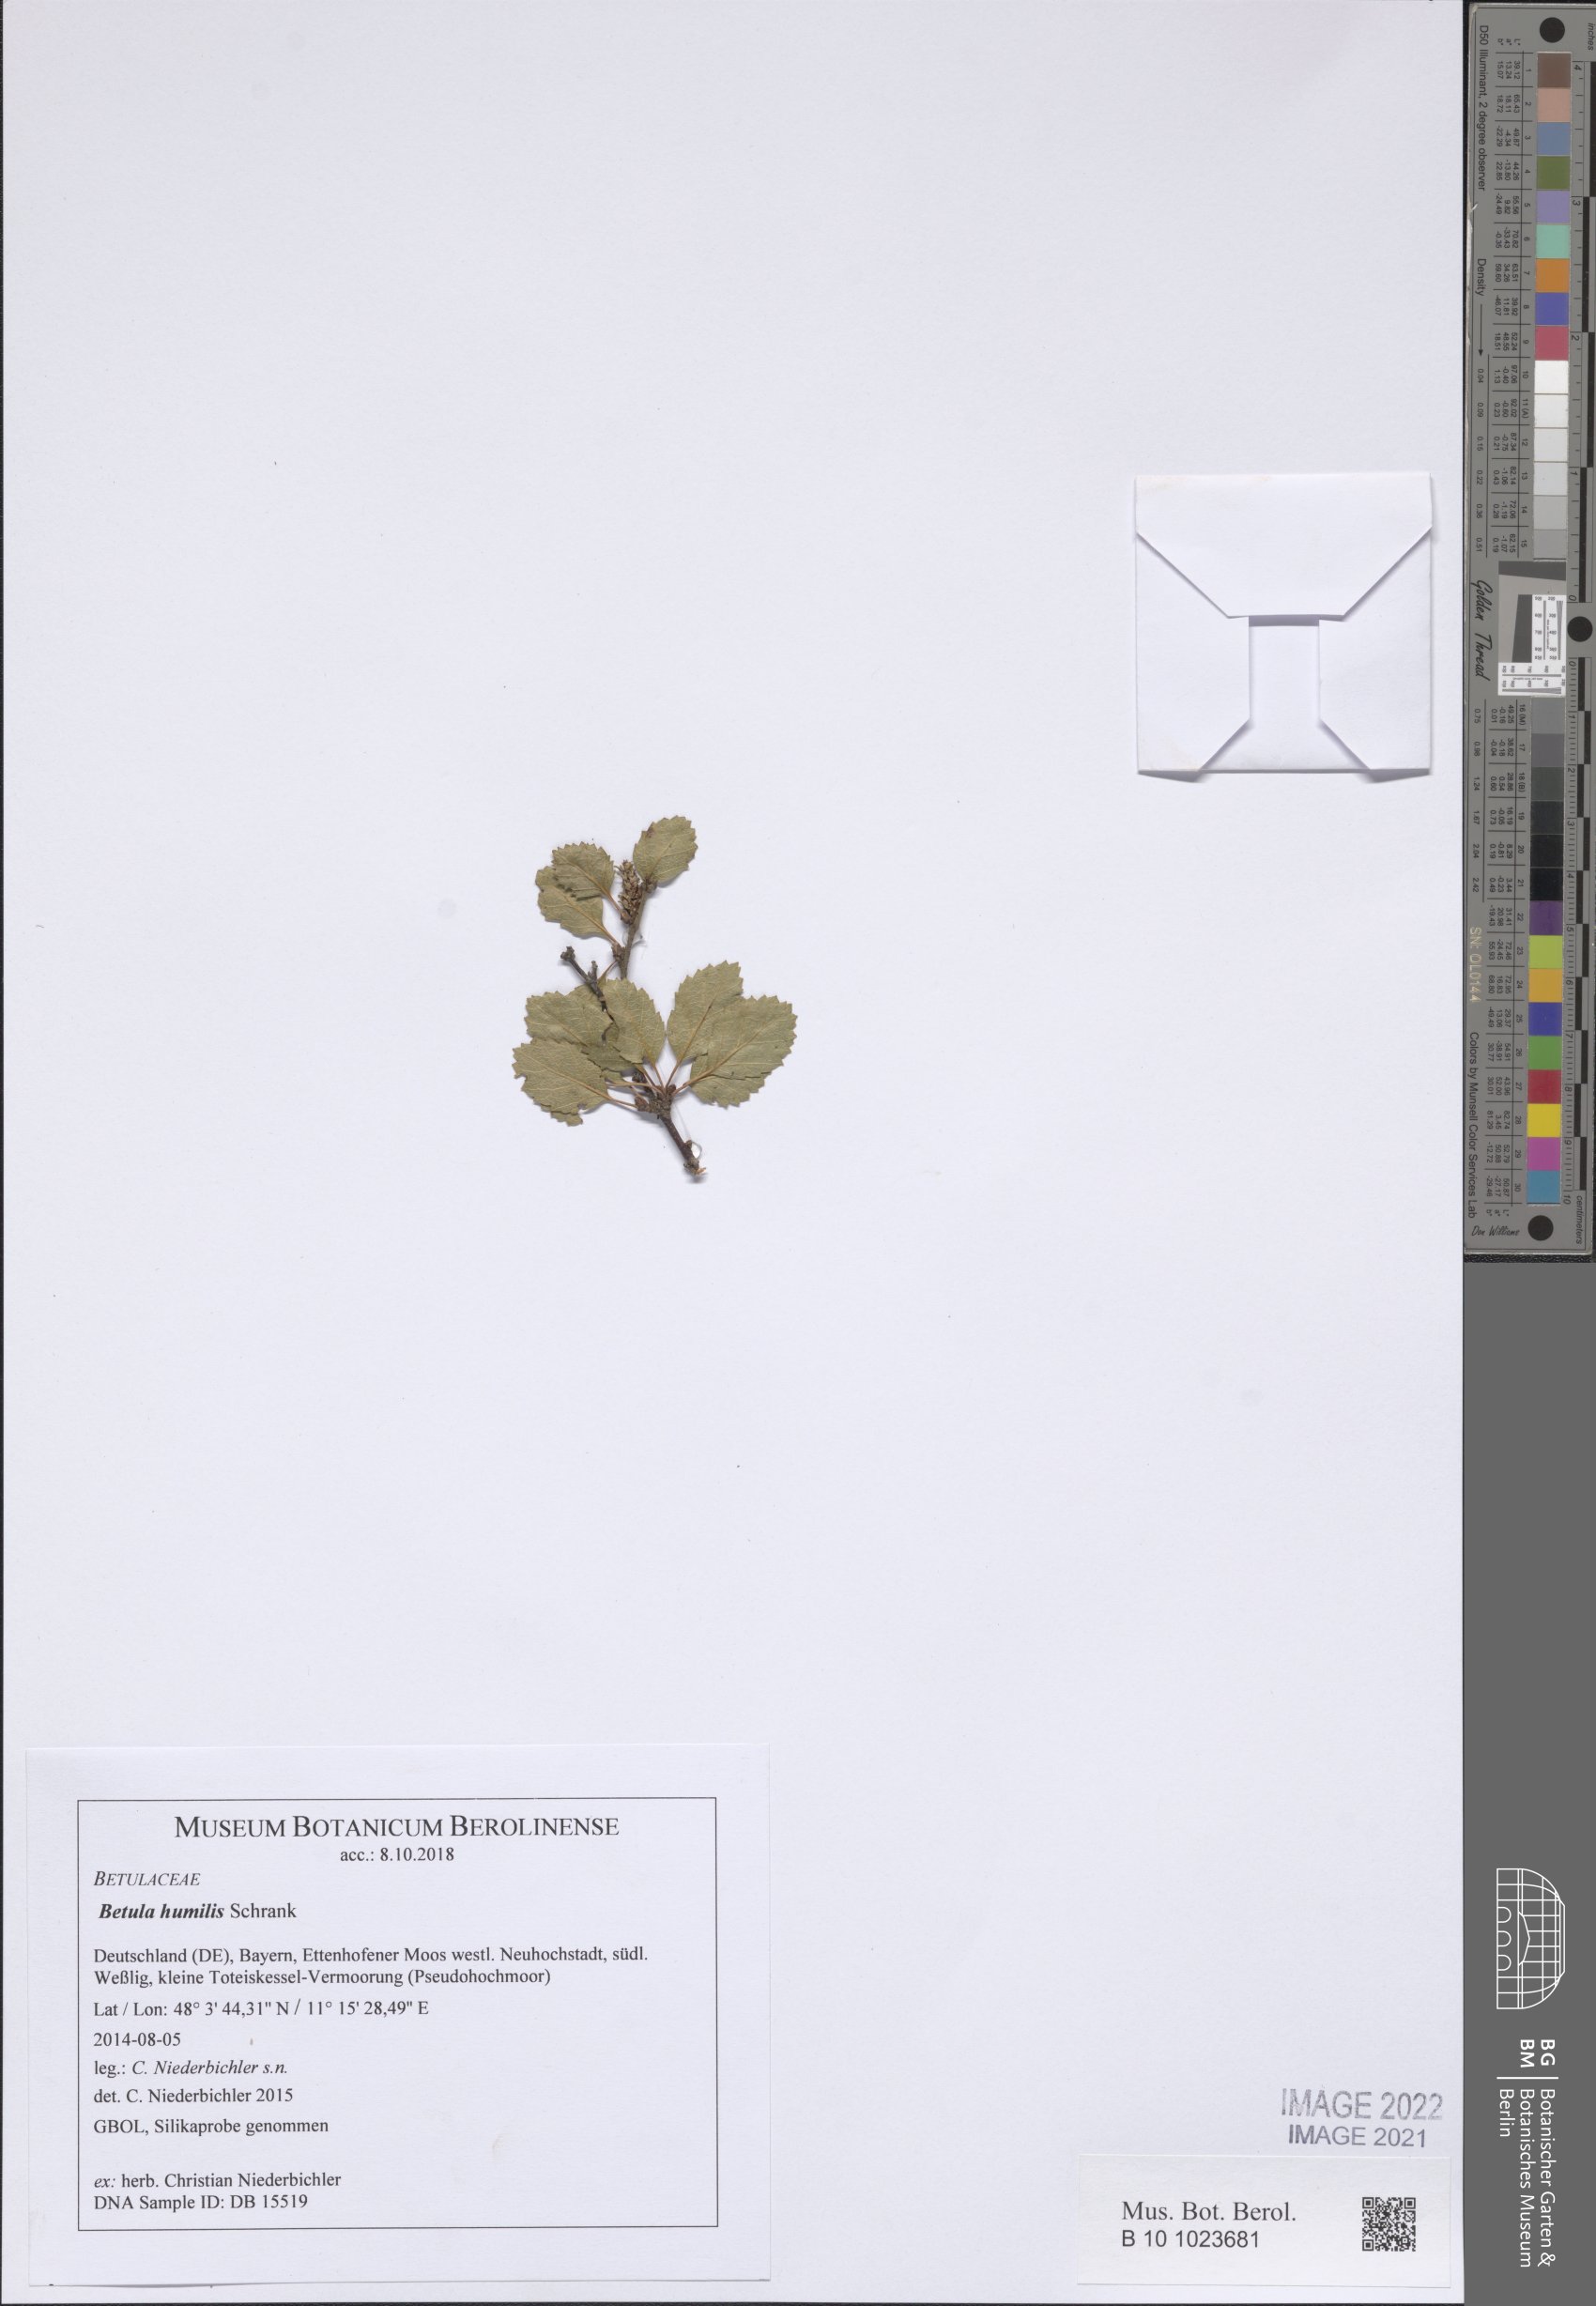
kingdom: Plantae
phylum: Tracheophyta
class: Magnoliopsida
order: Fagales
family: Betulaceae
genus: Betula
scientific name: Betula humilis
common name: Shrubby birch
